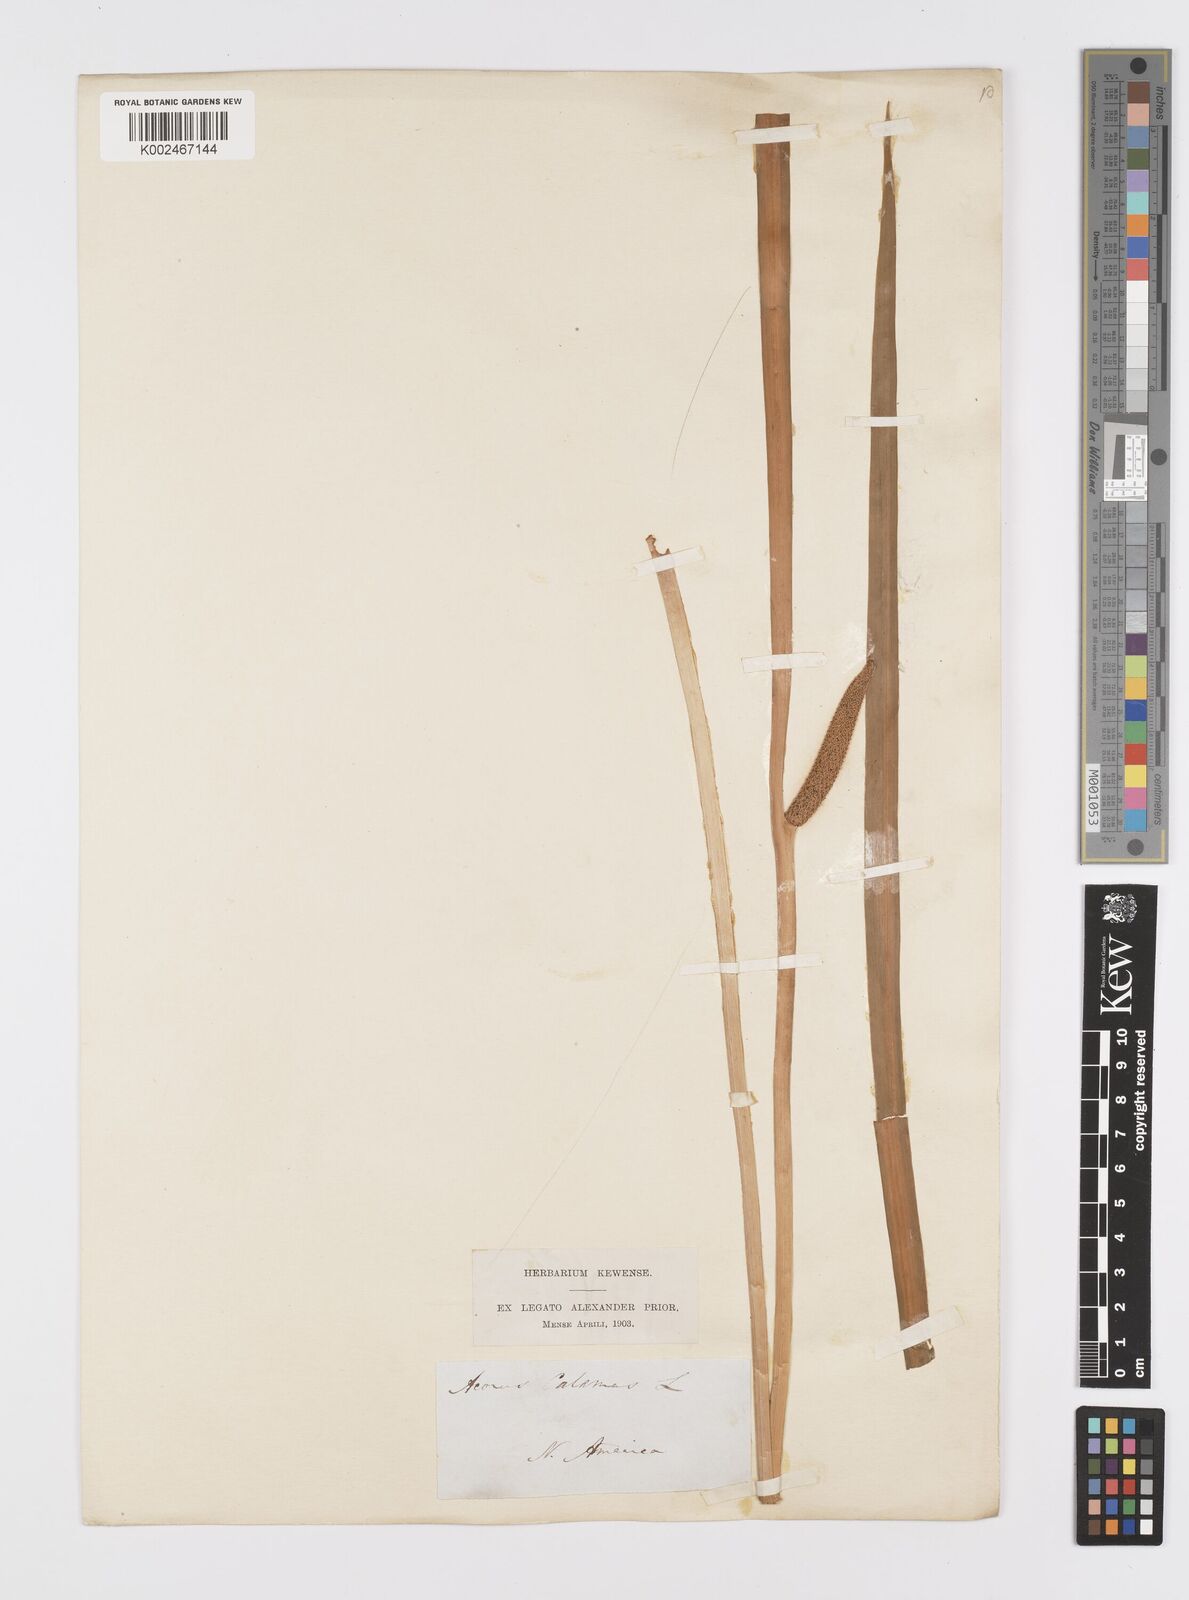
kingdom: Plantae
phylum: Tracheophyta
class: Liliopsida
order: Acorales
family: Acoraceae
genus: Acorus
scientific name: Acorus calamus
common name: Sweet-flag
